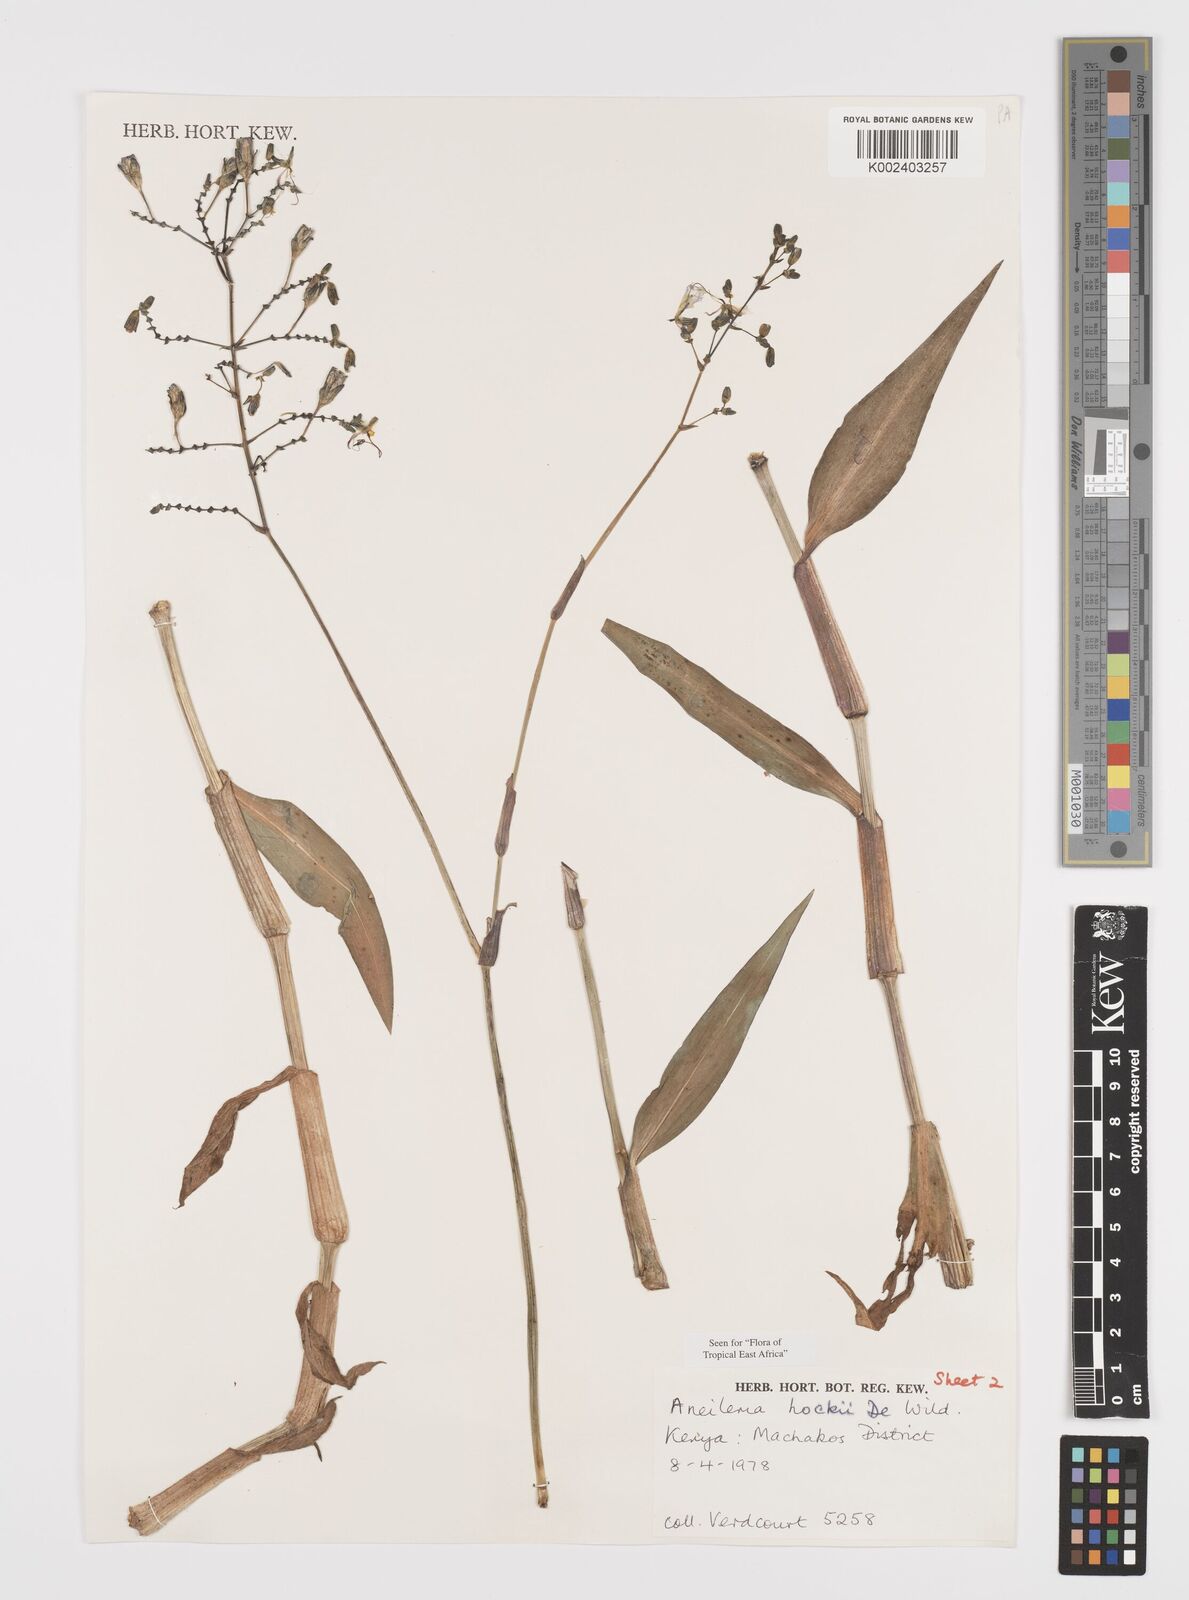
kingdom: Plantae
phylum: Tracheophyta
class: Liliopsida
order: Commelinales
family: Commelinaceae
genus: Aneilema
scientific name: Aneilema hockii
